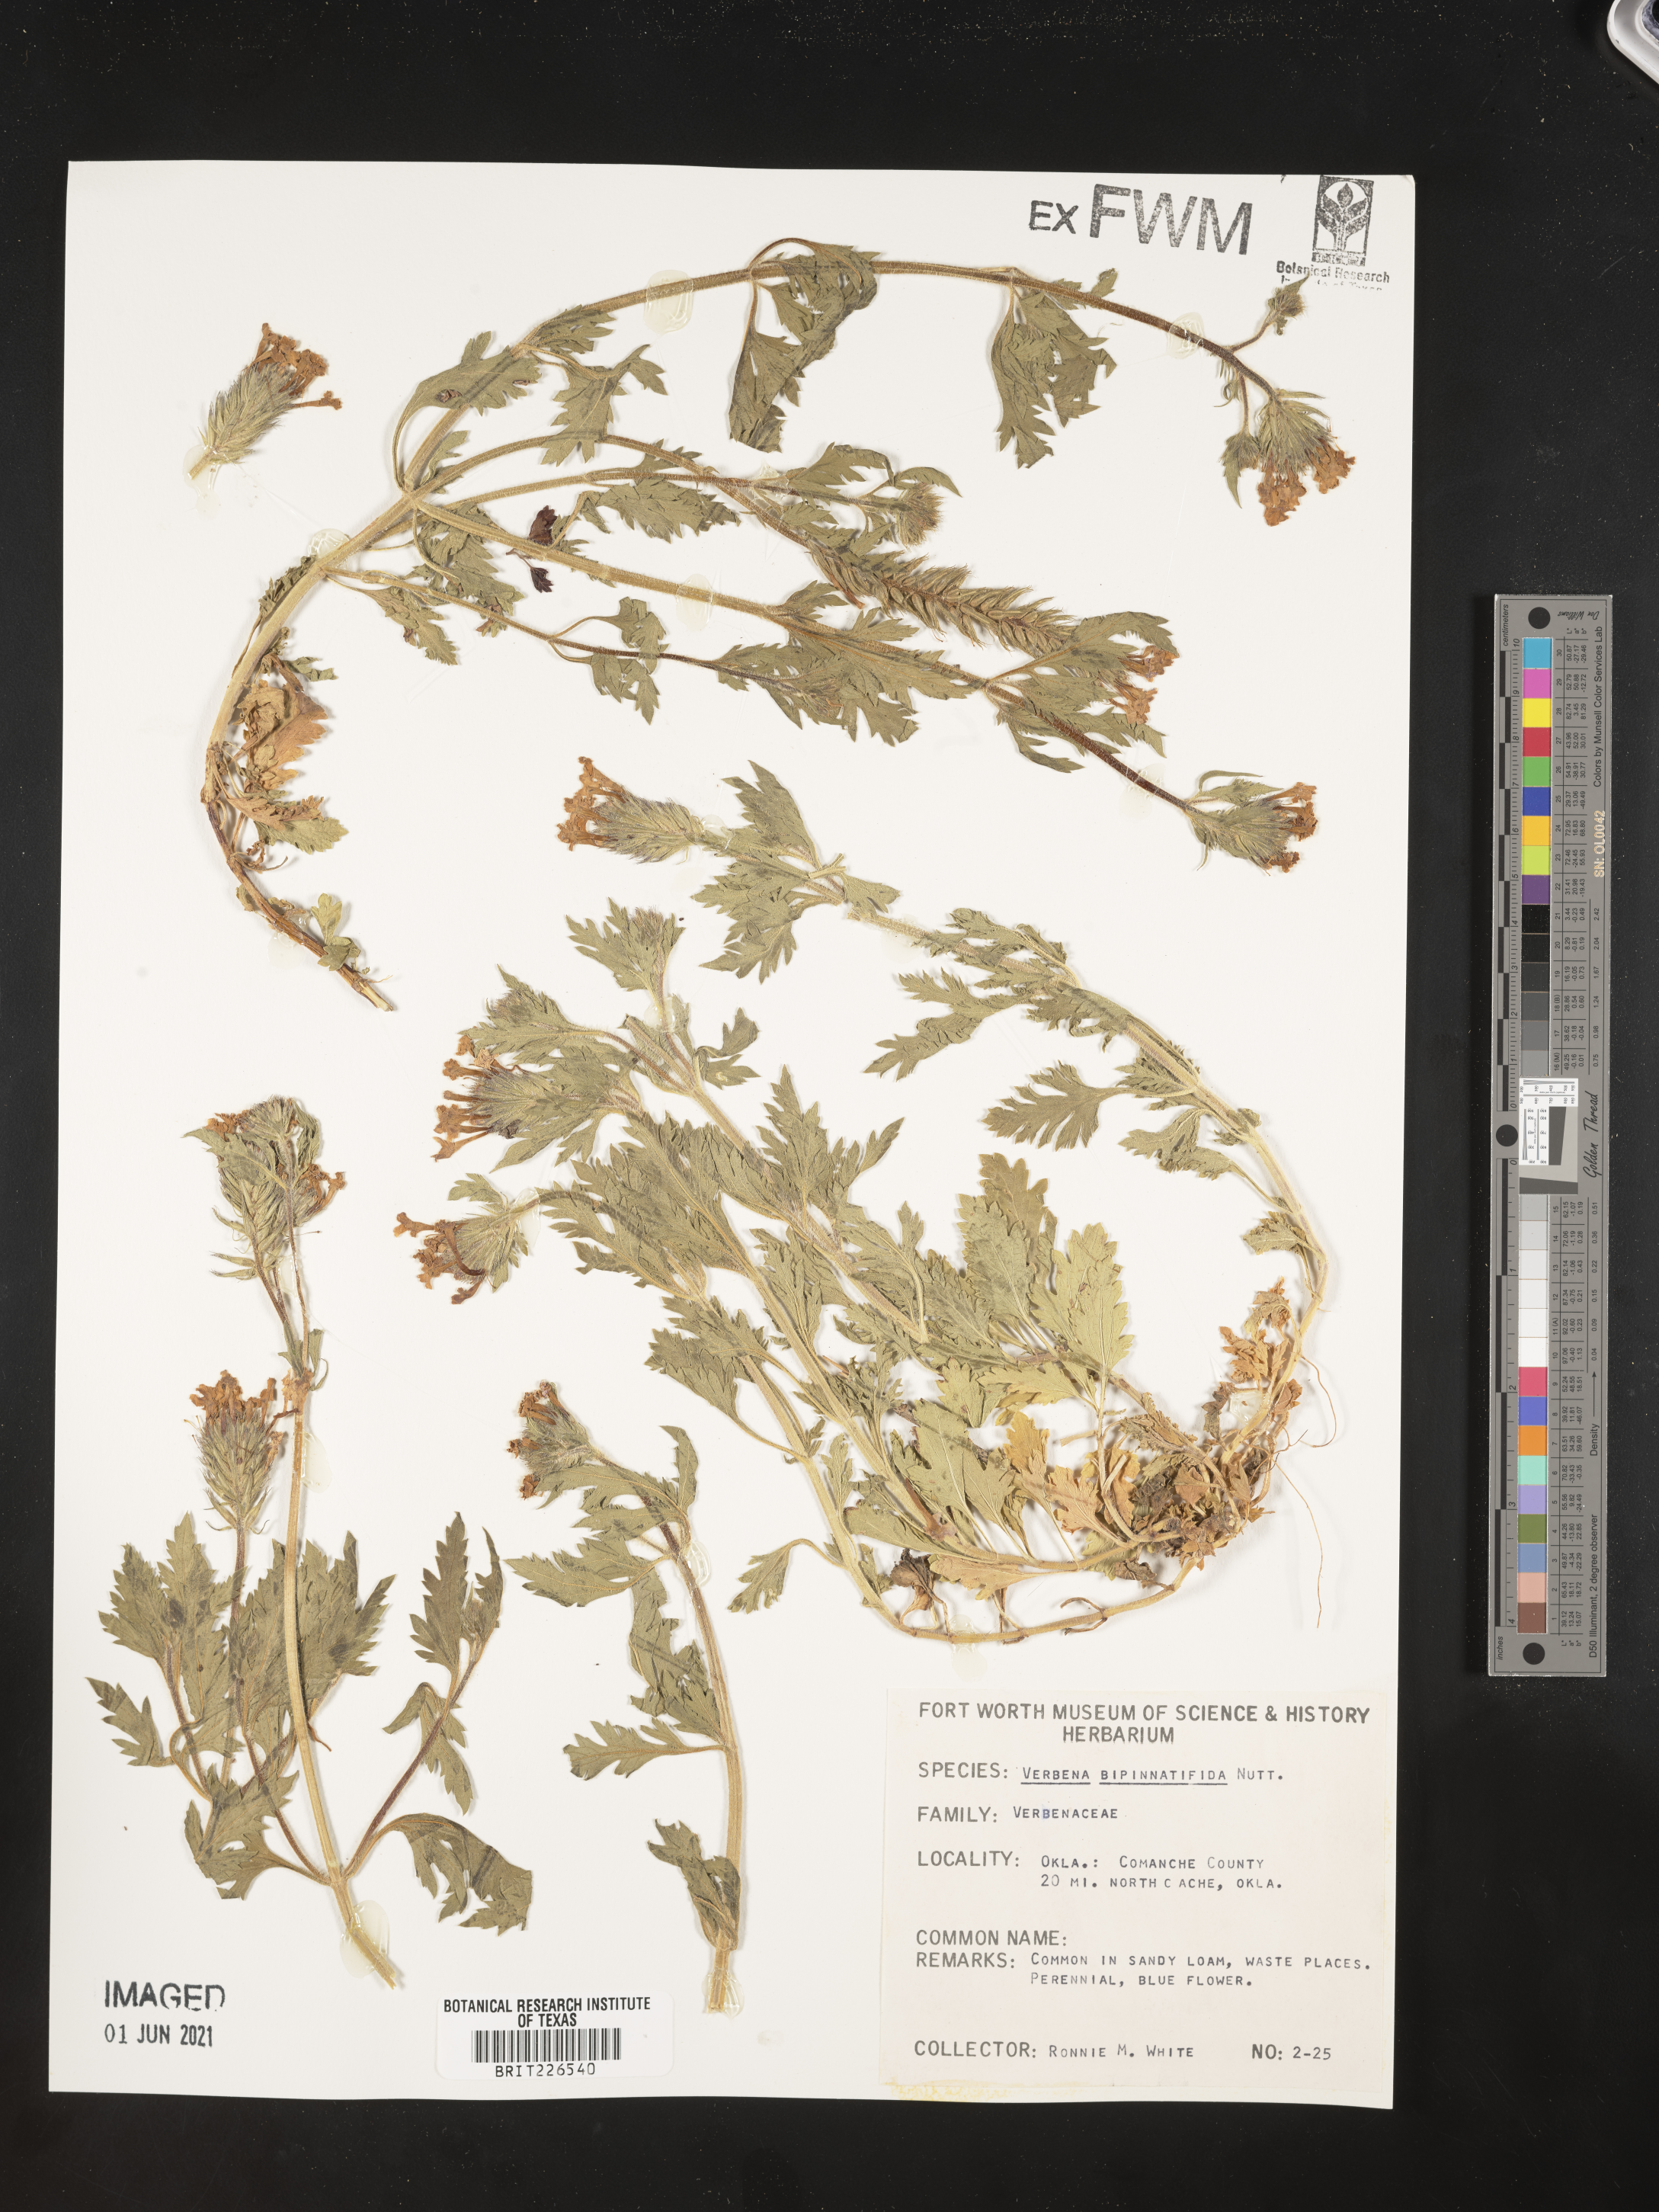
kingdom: Plantae
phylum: Tracheophyta
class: Magnoliopsida
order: Lamiales
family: Verbenaceae
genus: Verbena
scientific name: Verbena bipinnatifida
